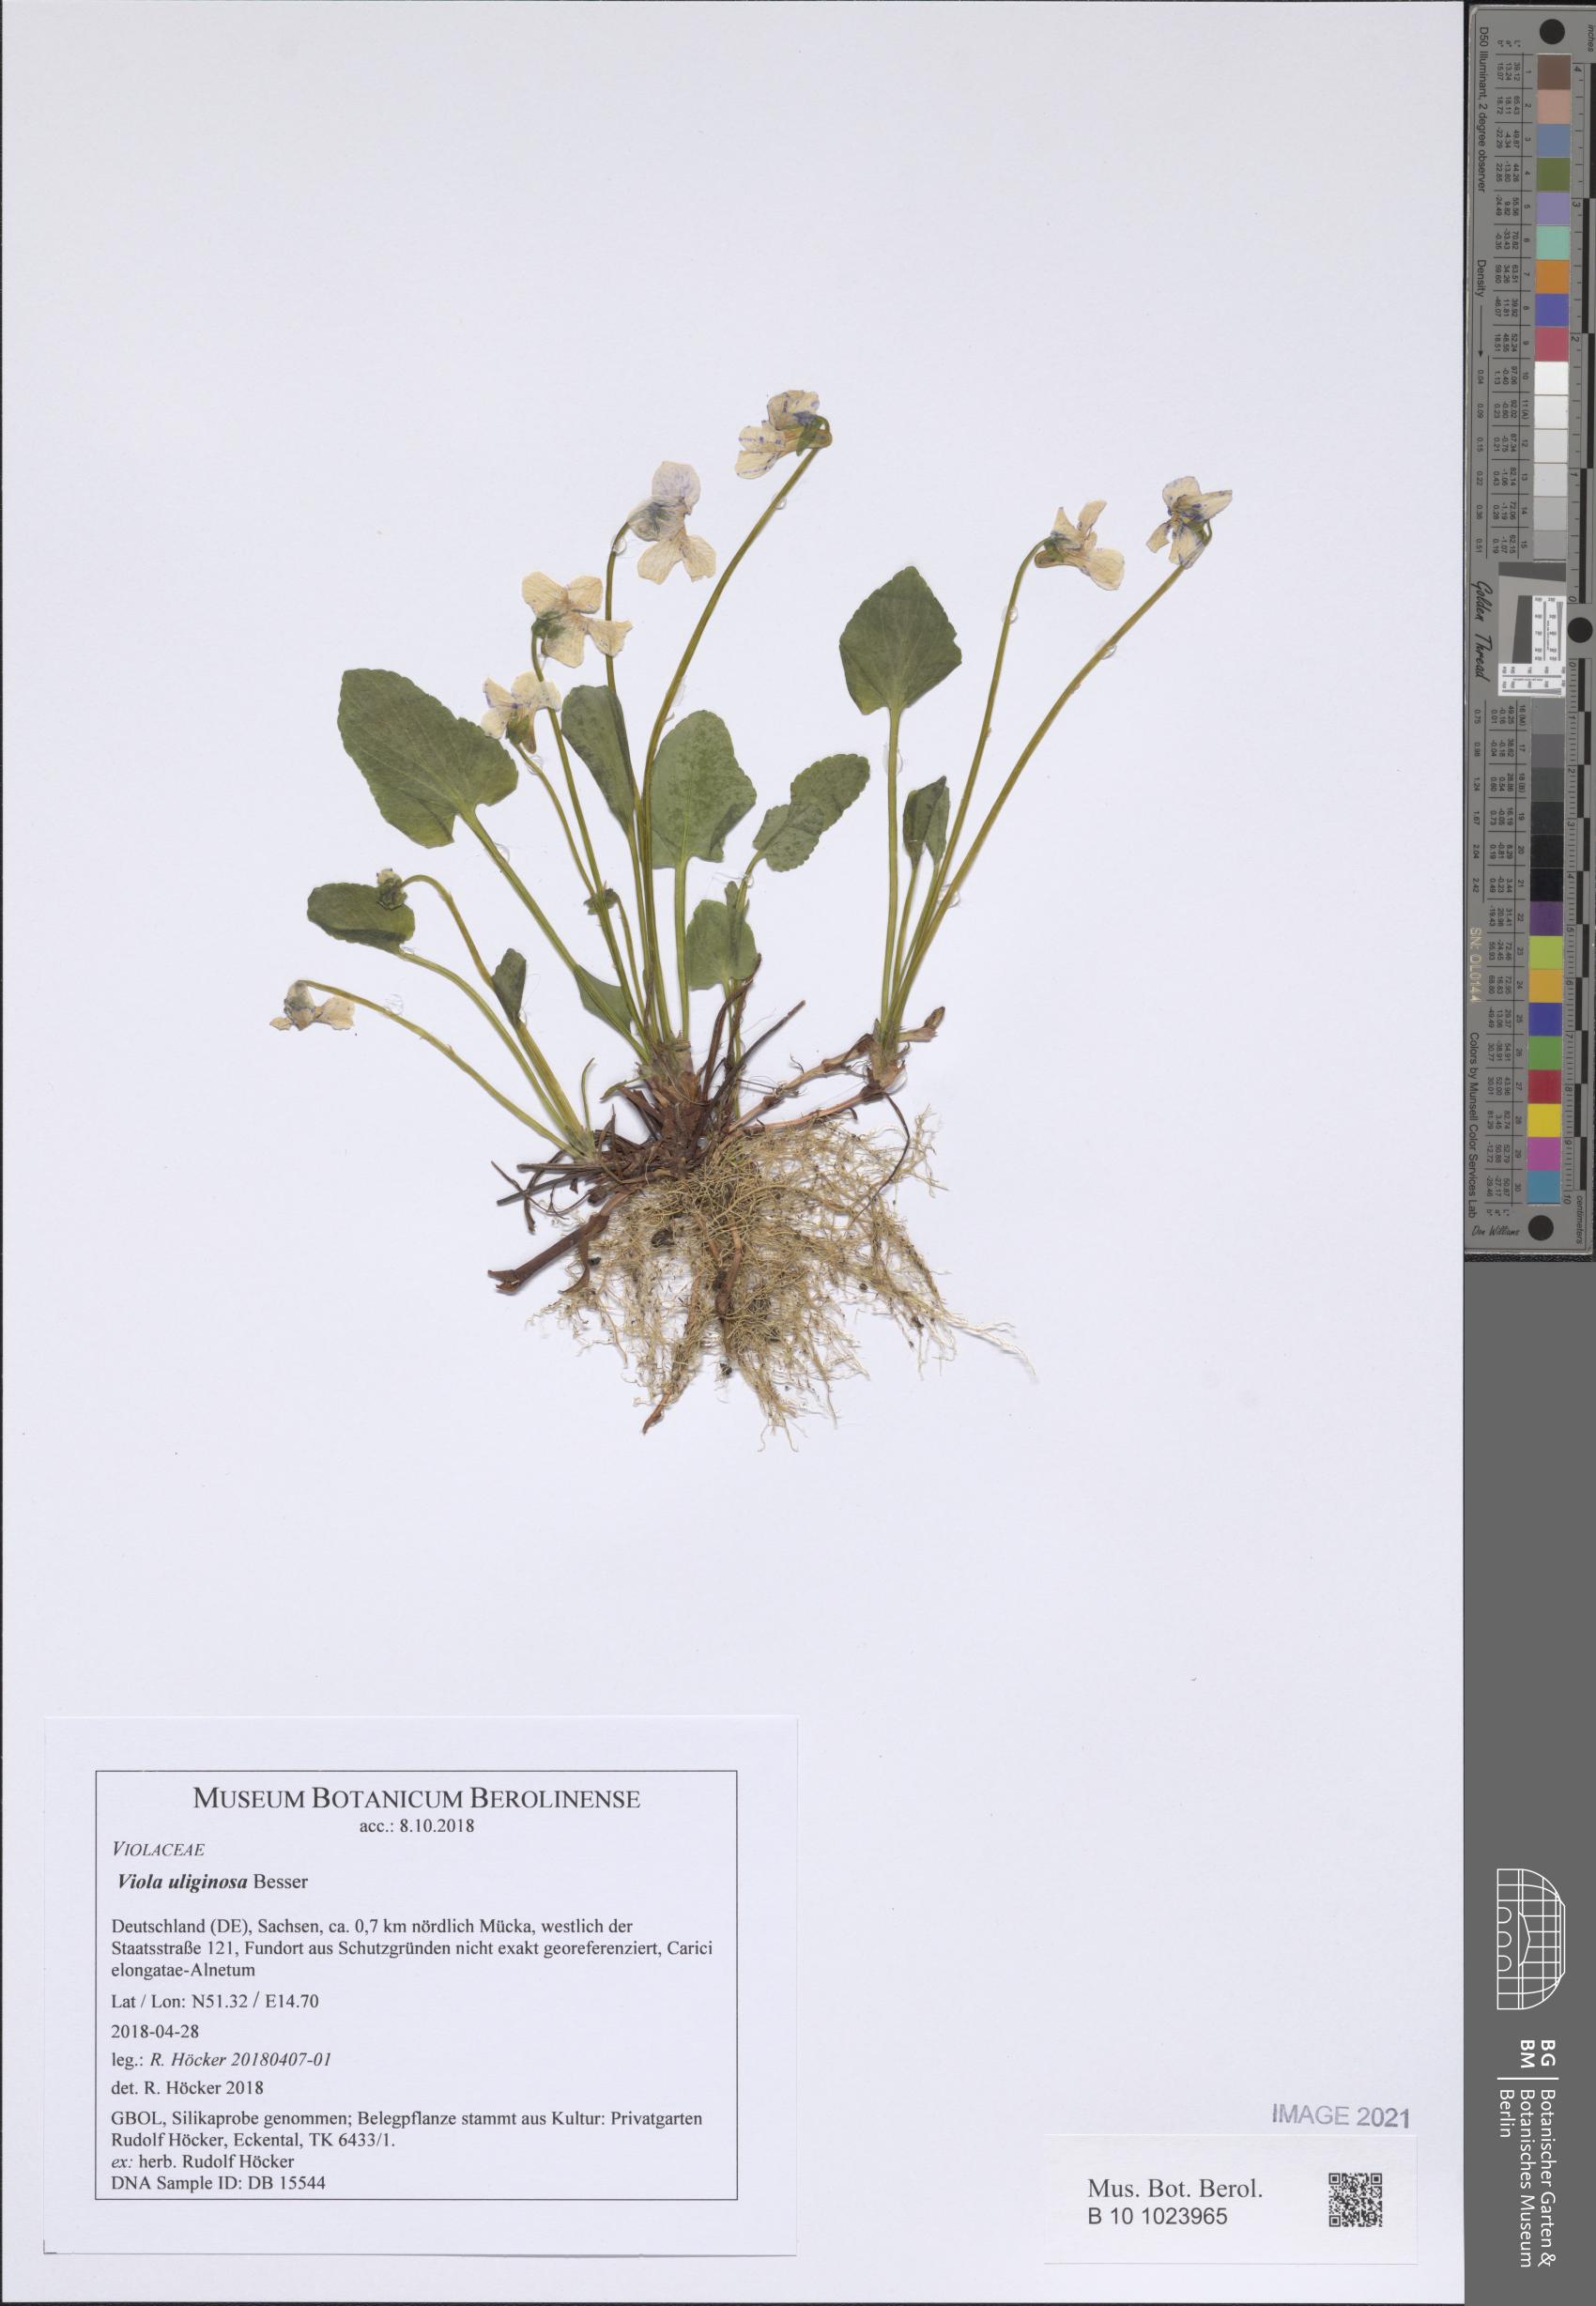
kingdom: Plantae
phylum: Tracheophyta
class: Magnoliopsida
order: Malpighiales
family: Violaceae
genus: Viola
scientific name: Viola uliginosa
